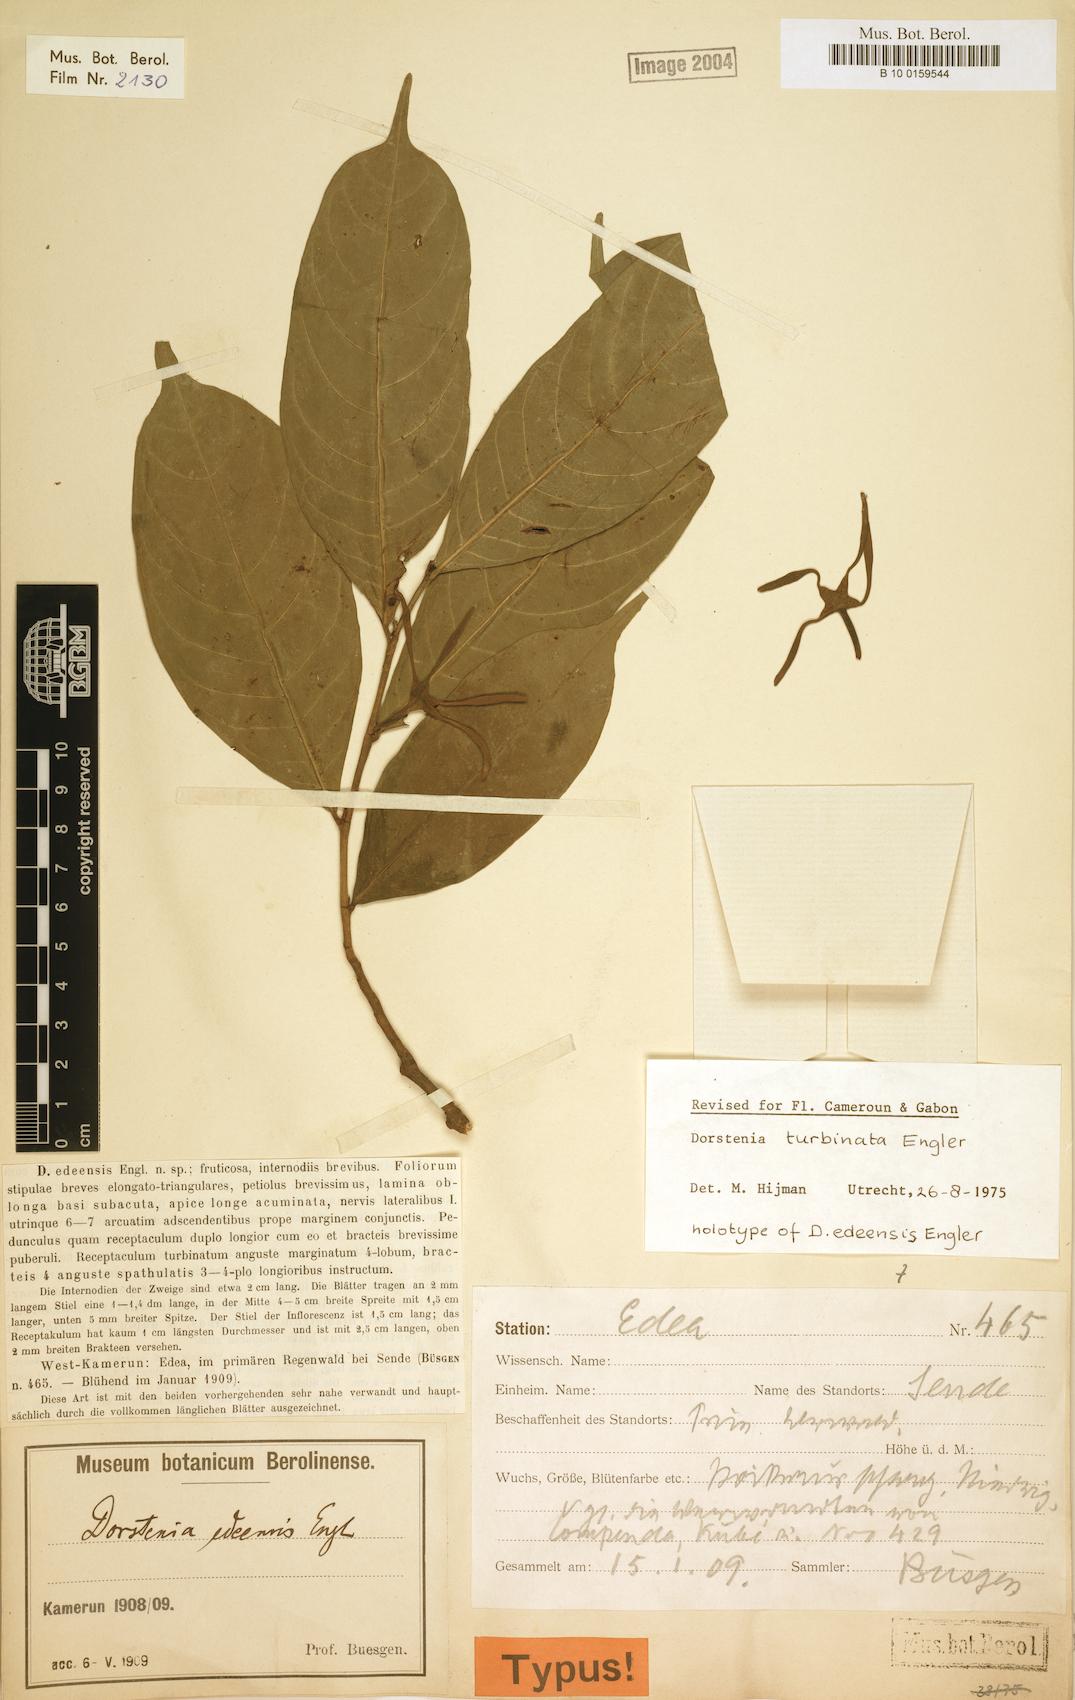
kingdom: Plantae
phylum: Tracheophyta
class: Magnoliopsida
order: Rosales
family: Moraceae
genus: Hijmania
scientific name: Hijmania turbinata
